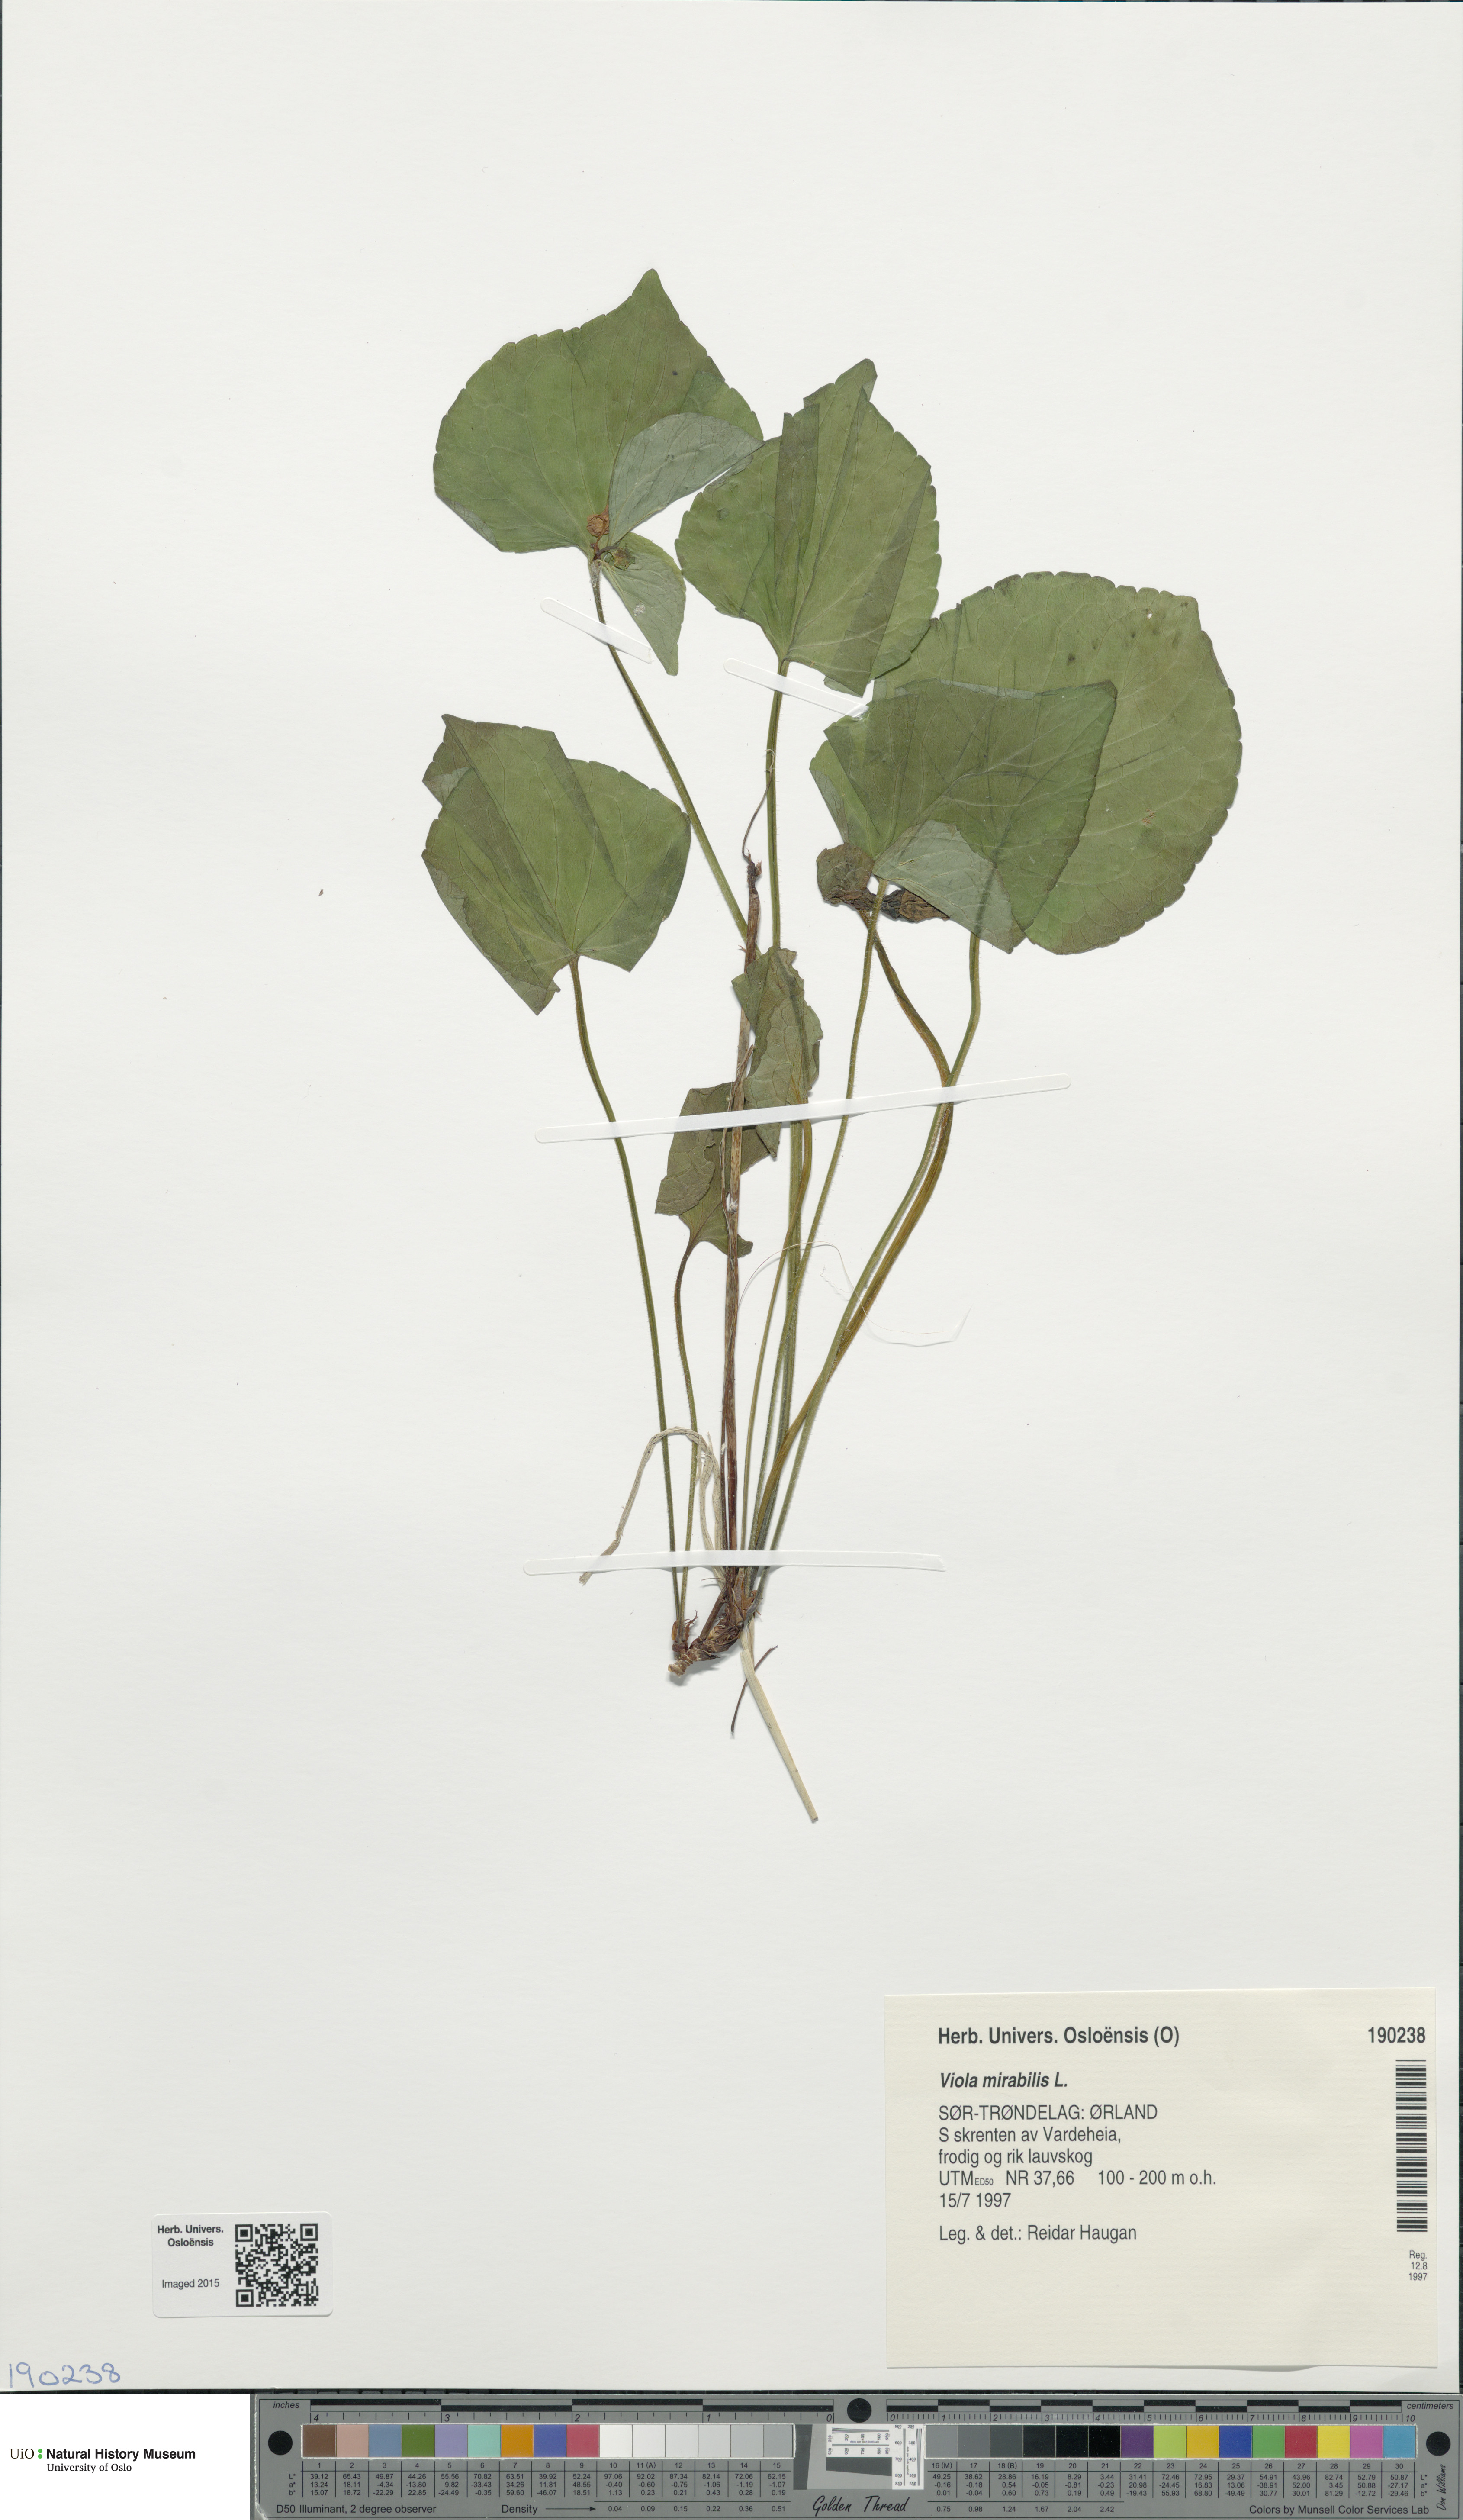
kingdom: Plantae
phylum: Tracheophyta
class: Magnoliopsida
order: Malpighiales
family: Violaceae
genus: Viola
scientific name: Viola mirabilis
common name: Wonder violet
